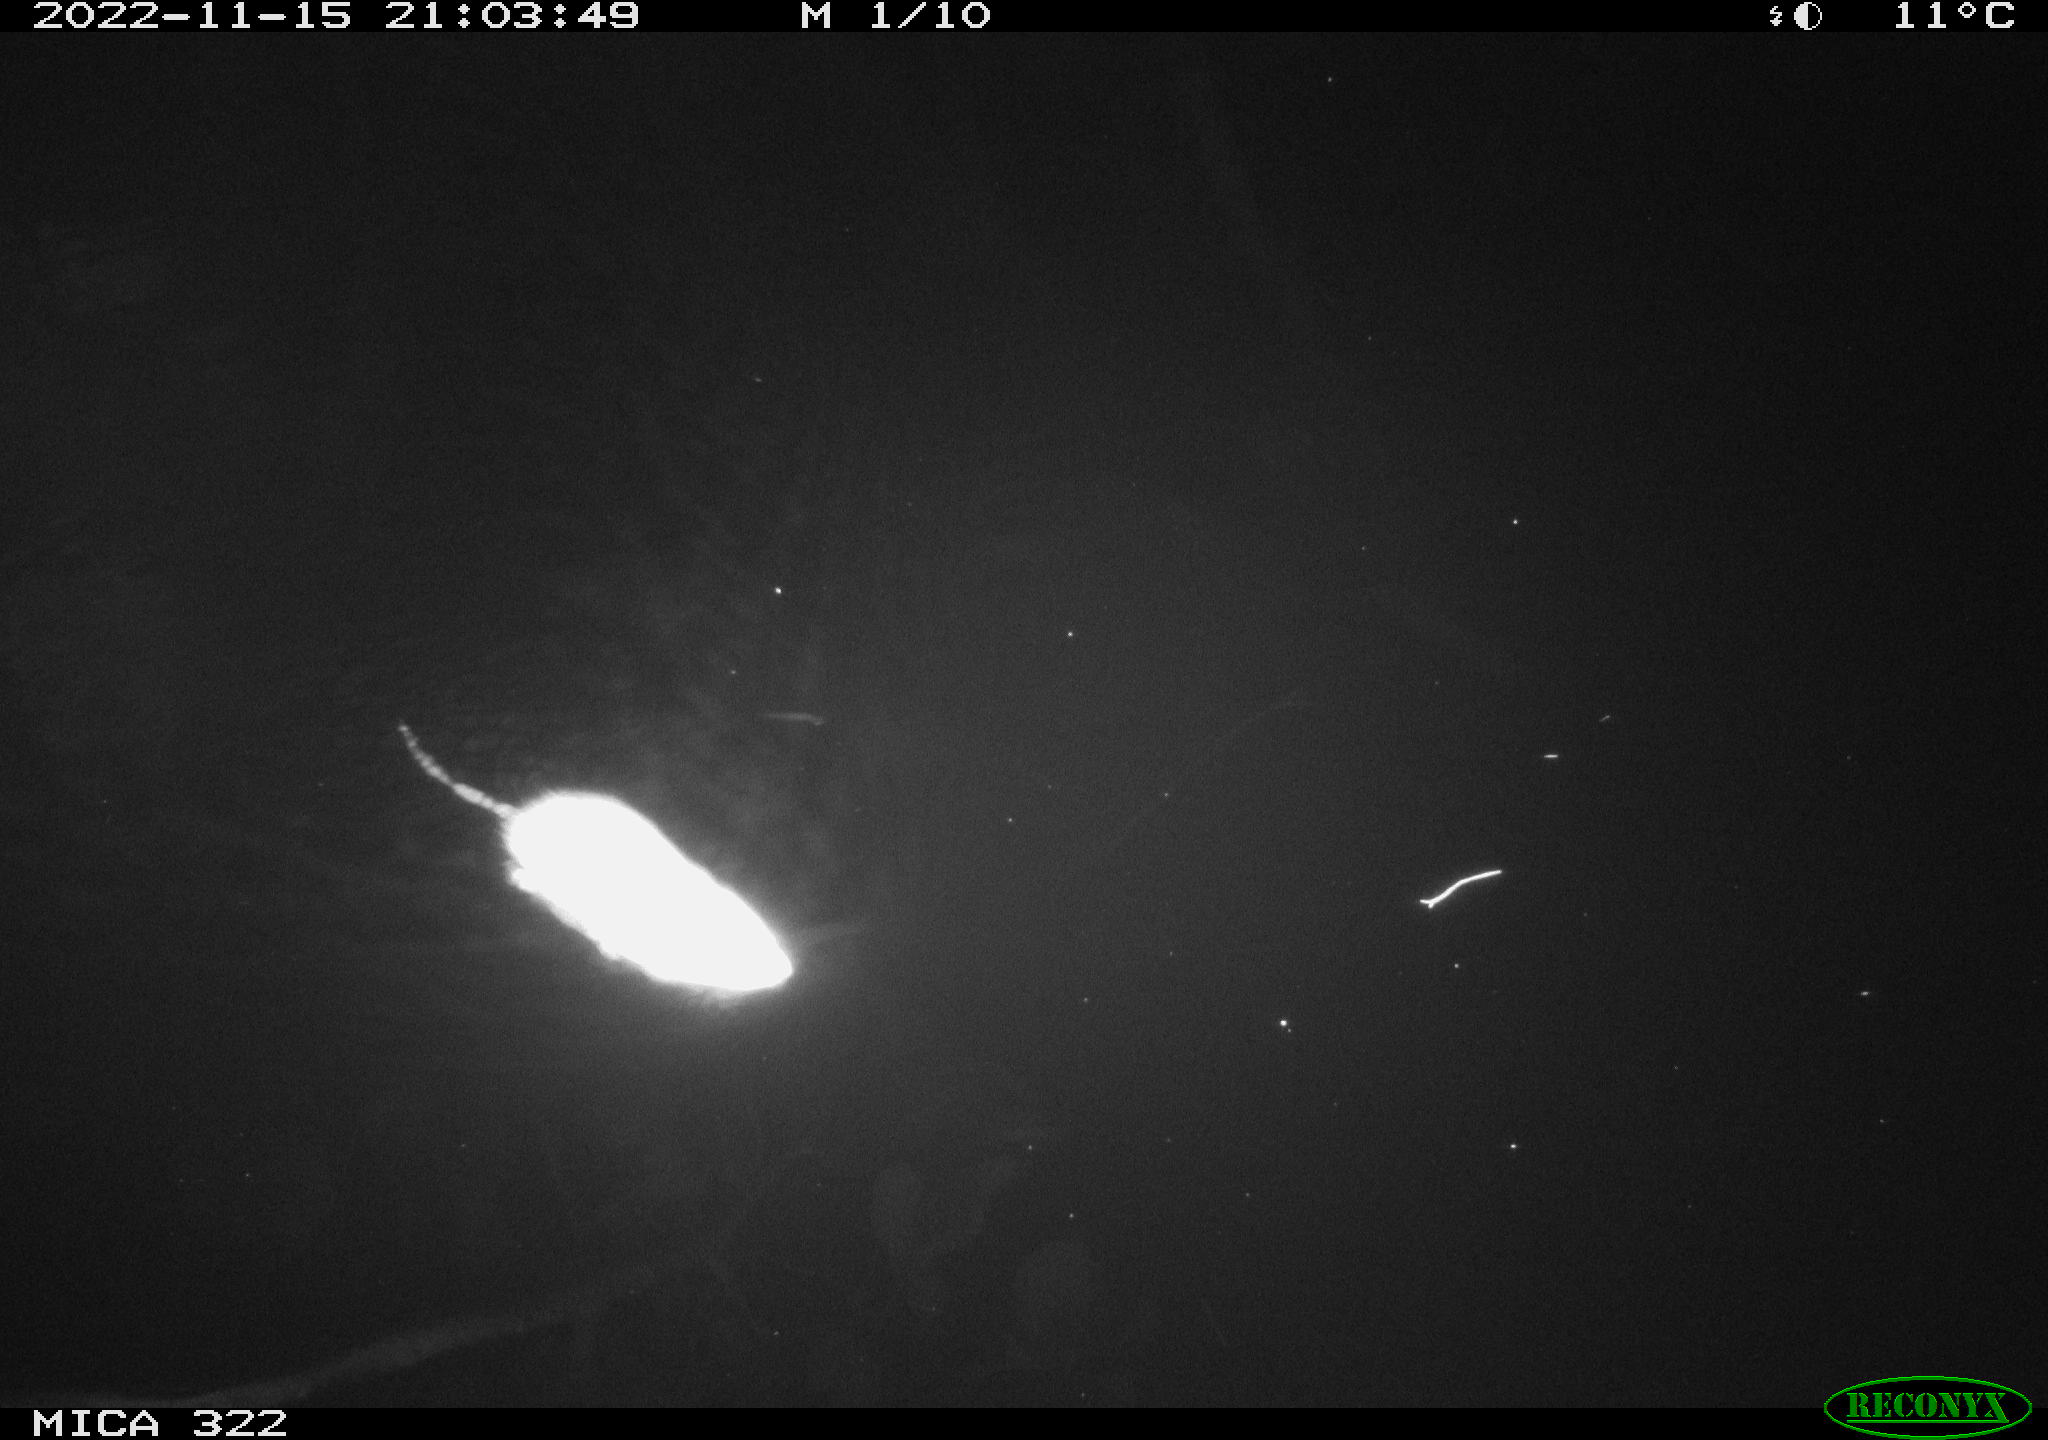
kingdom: Animalia
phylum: Chordata
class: Mammalia
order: Rodentia
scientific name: Rodentia
